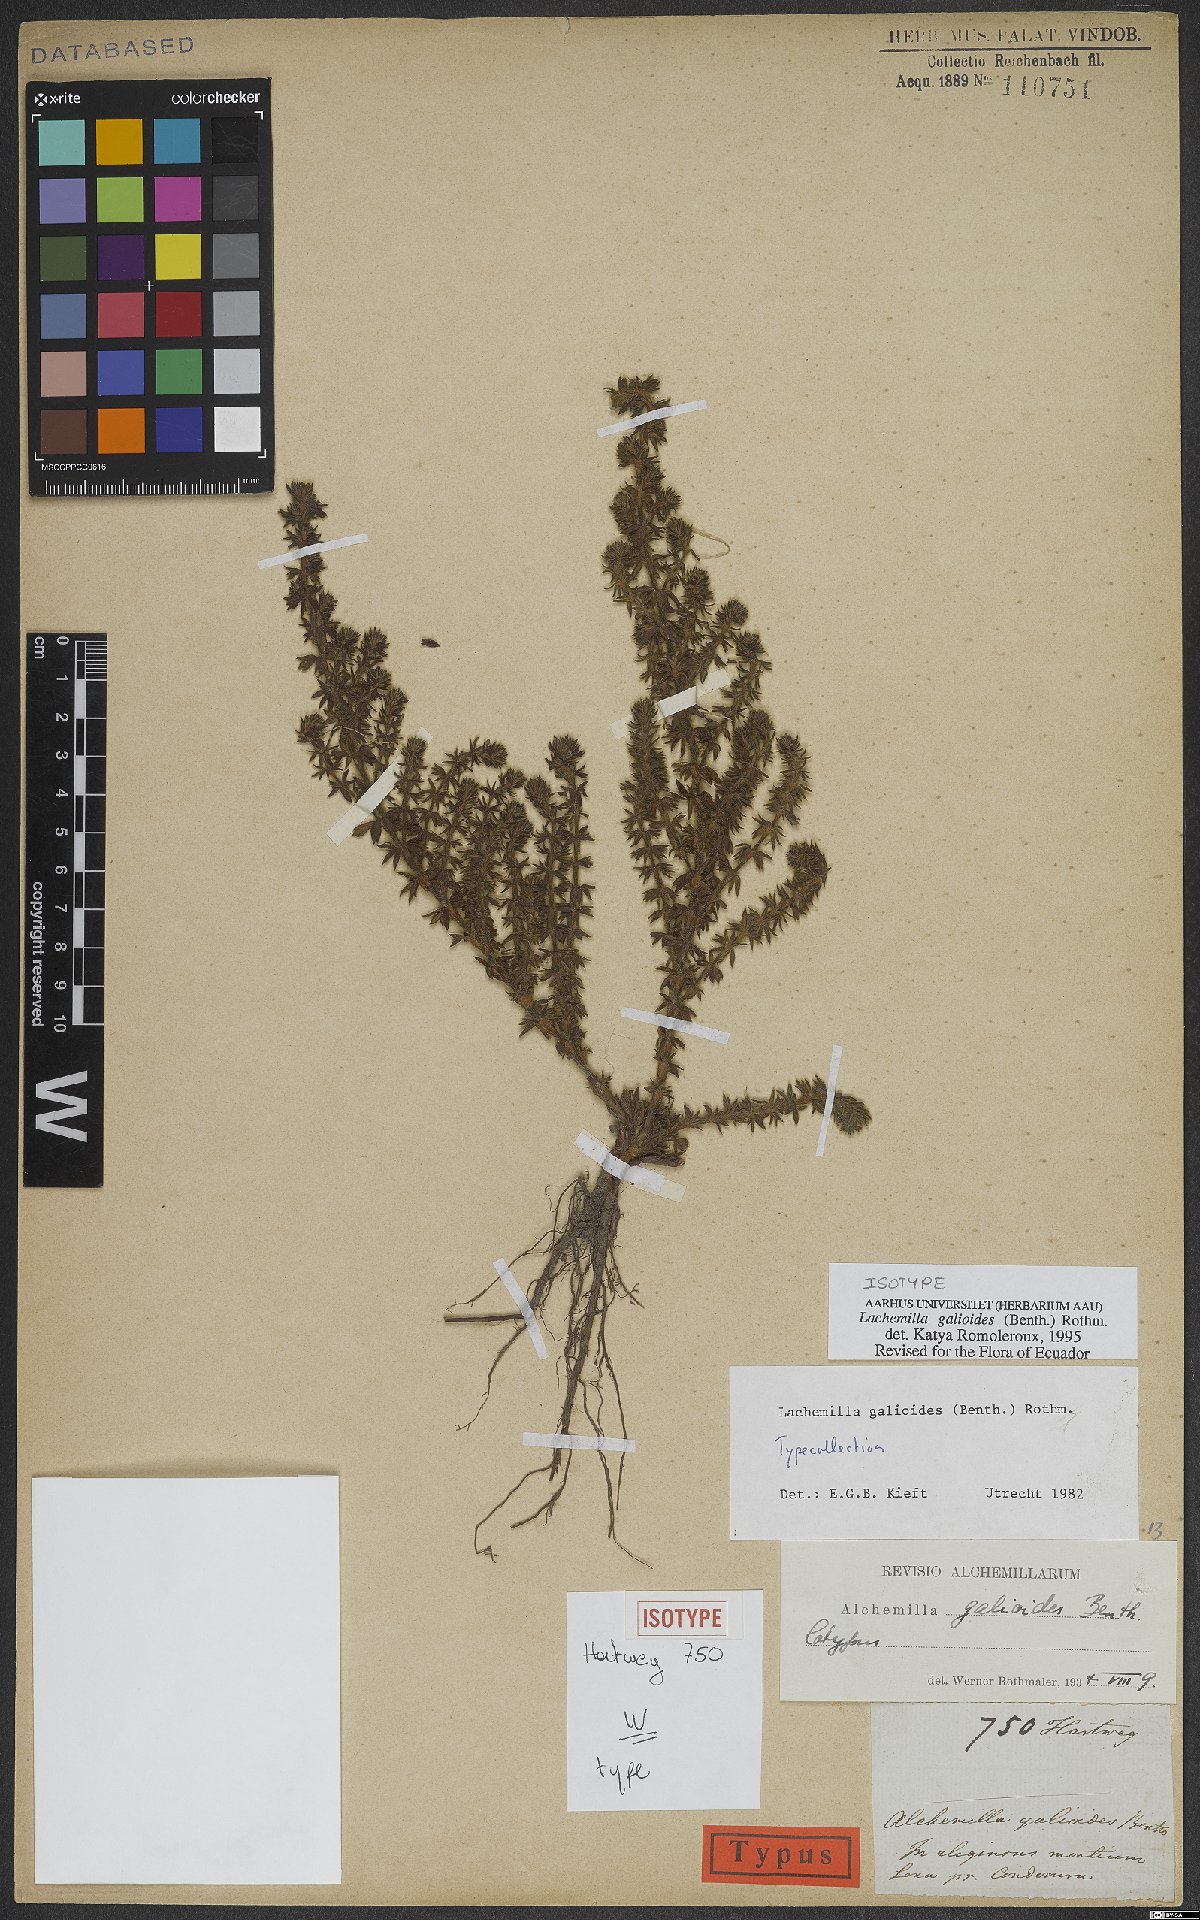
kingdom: Plantae
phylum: Tracheophyta
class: Magnoliopsida
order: Rosales
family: Rosaceae
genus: Lachemilla
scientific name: Lachemilla galioides
